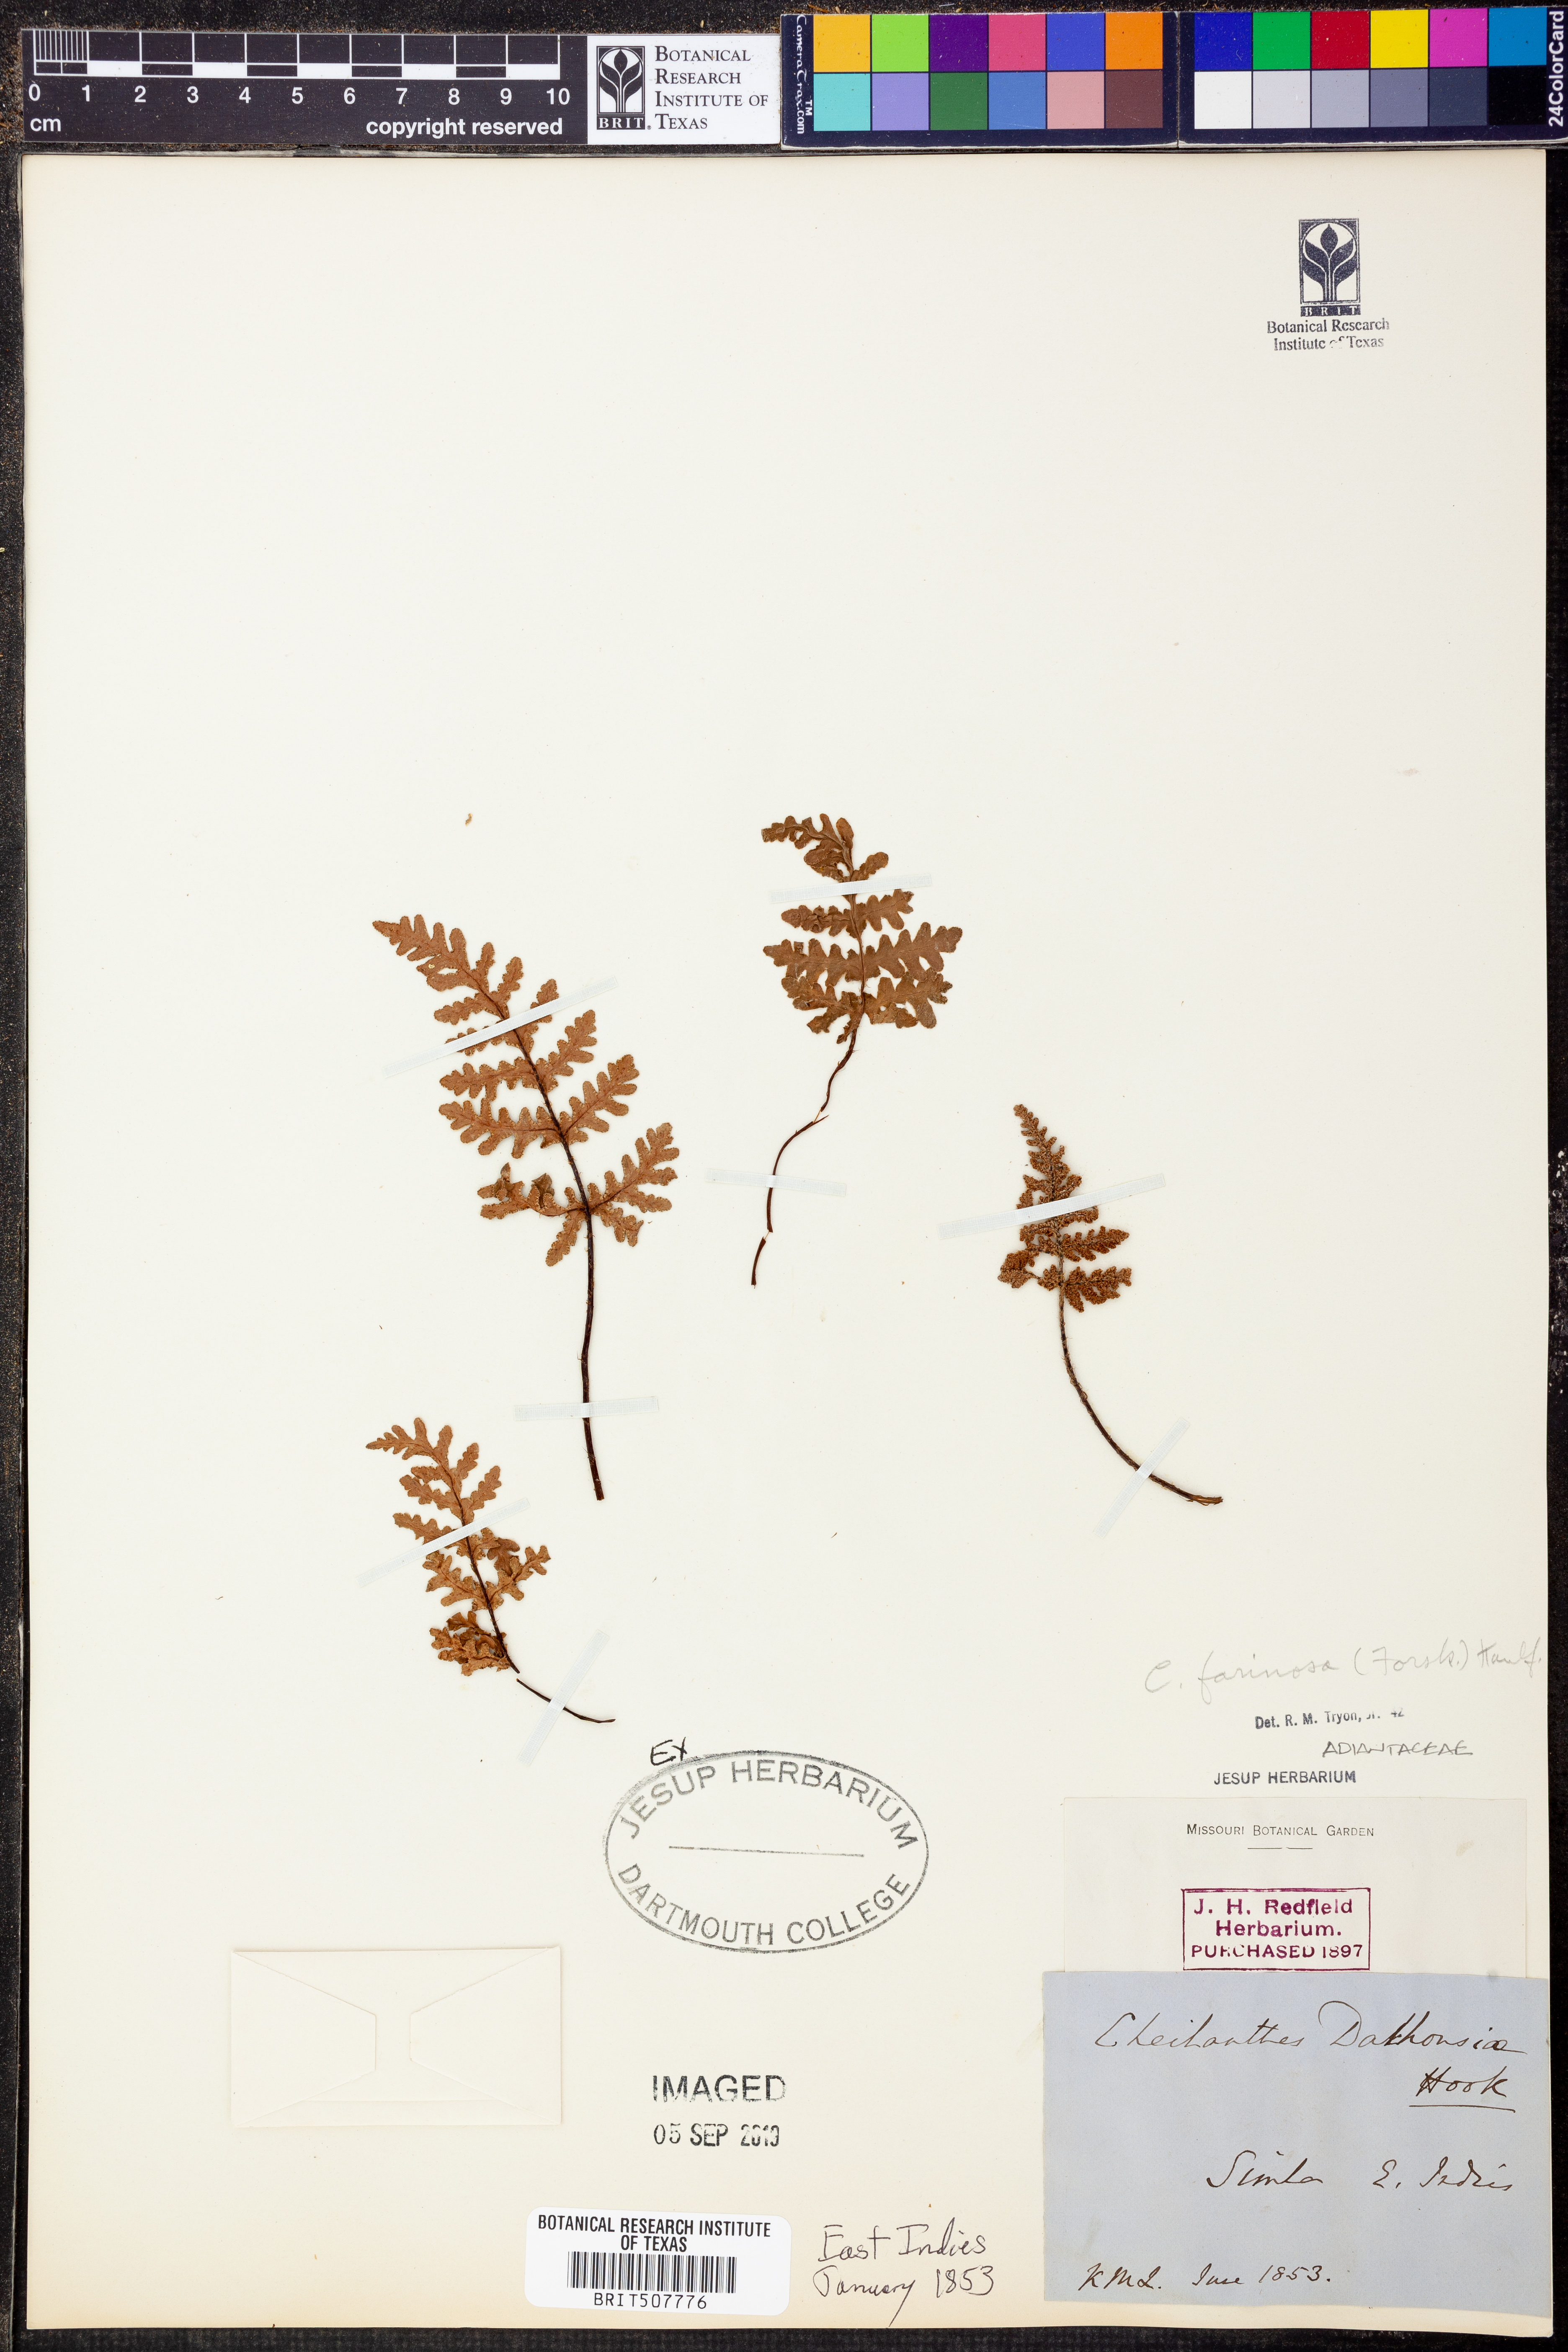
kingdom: Plantae
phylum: Tracheophyta
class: Polypodiopsida
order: Polypodiales
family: Pteridaceae
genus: Aleuritopteris
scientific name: Aleuritopteris farinosa
